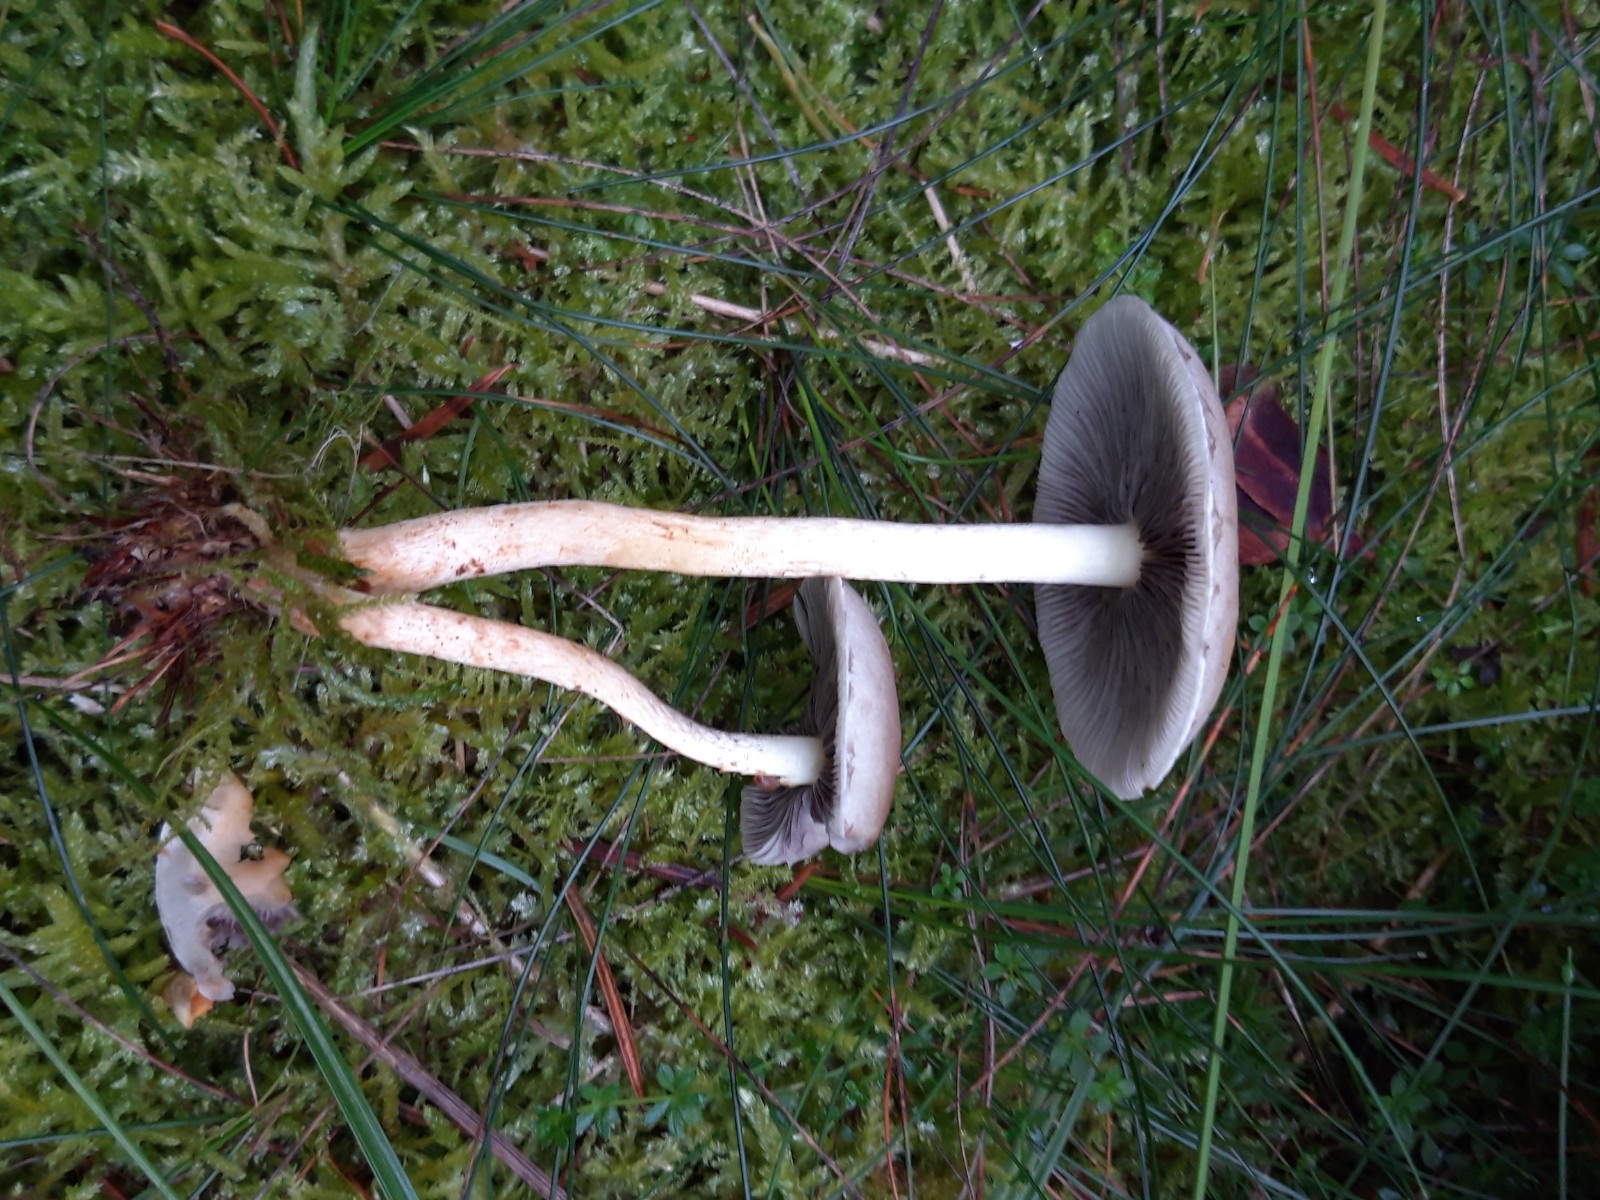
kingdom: Fungi
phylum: Basidiomycota
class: Agaricomycetes
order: Agaricales
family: Strophariaceae
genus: Hypholoma
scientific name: Hypholoma lateritium
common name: teglrød svovlhat
